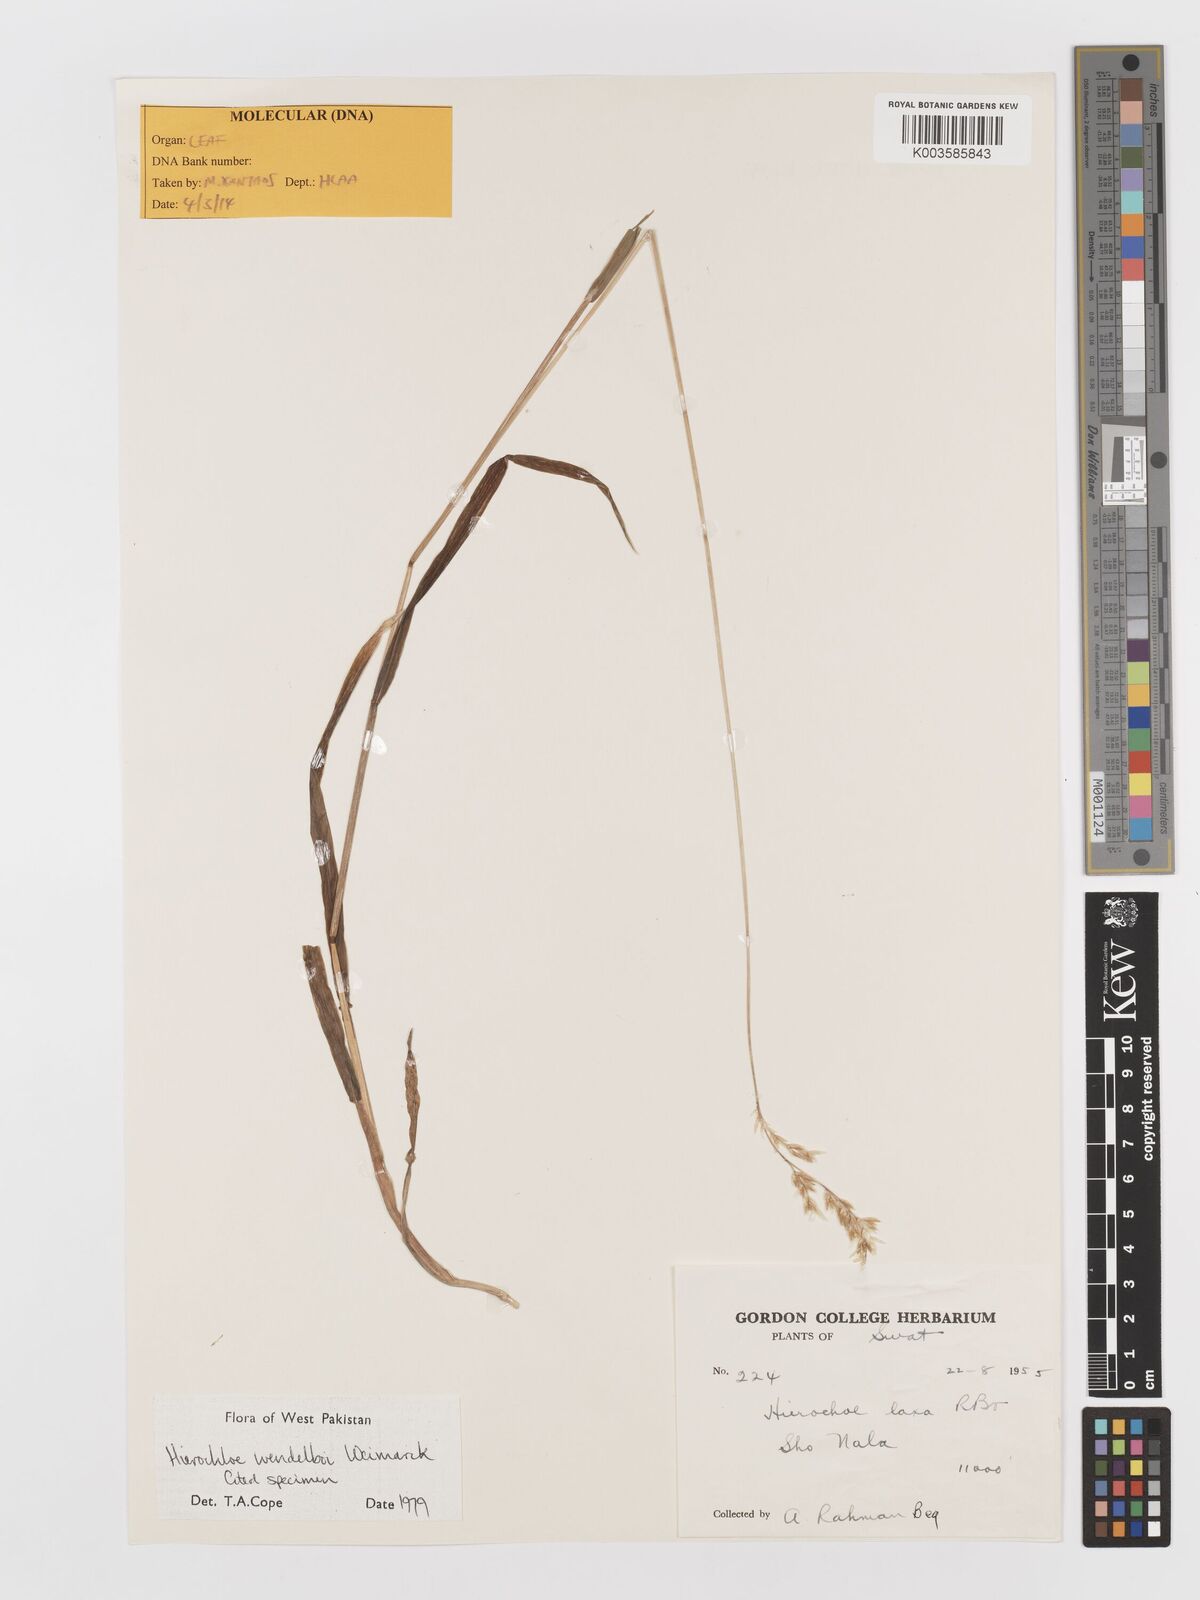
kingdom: Plantae
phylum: Tracheophyta
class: Liliopsida
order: Poales
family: Poaceae
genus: Anthoxanthum
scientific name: Anthoxanthum wendelboi
